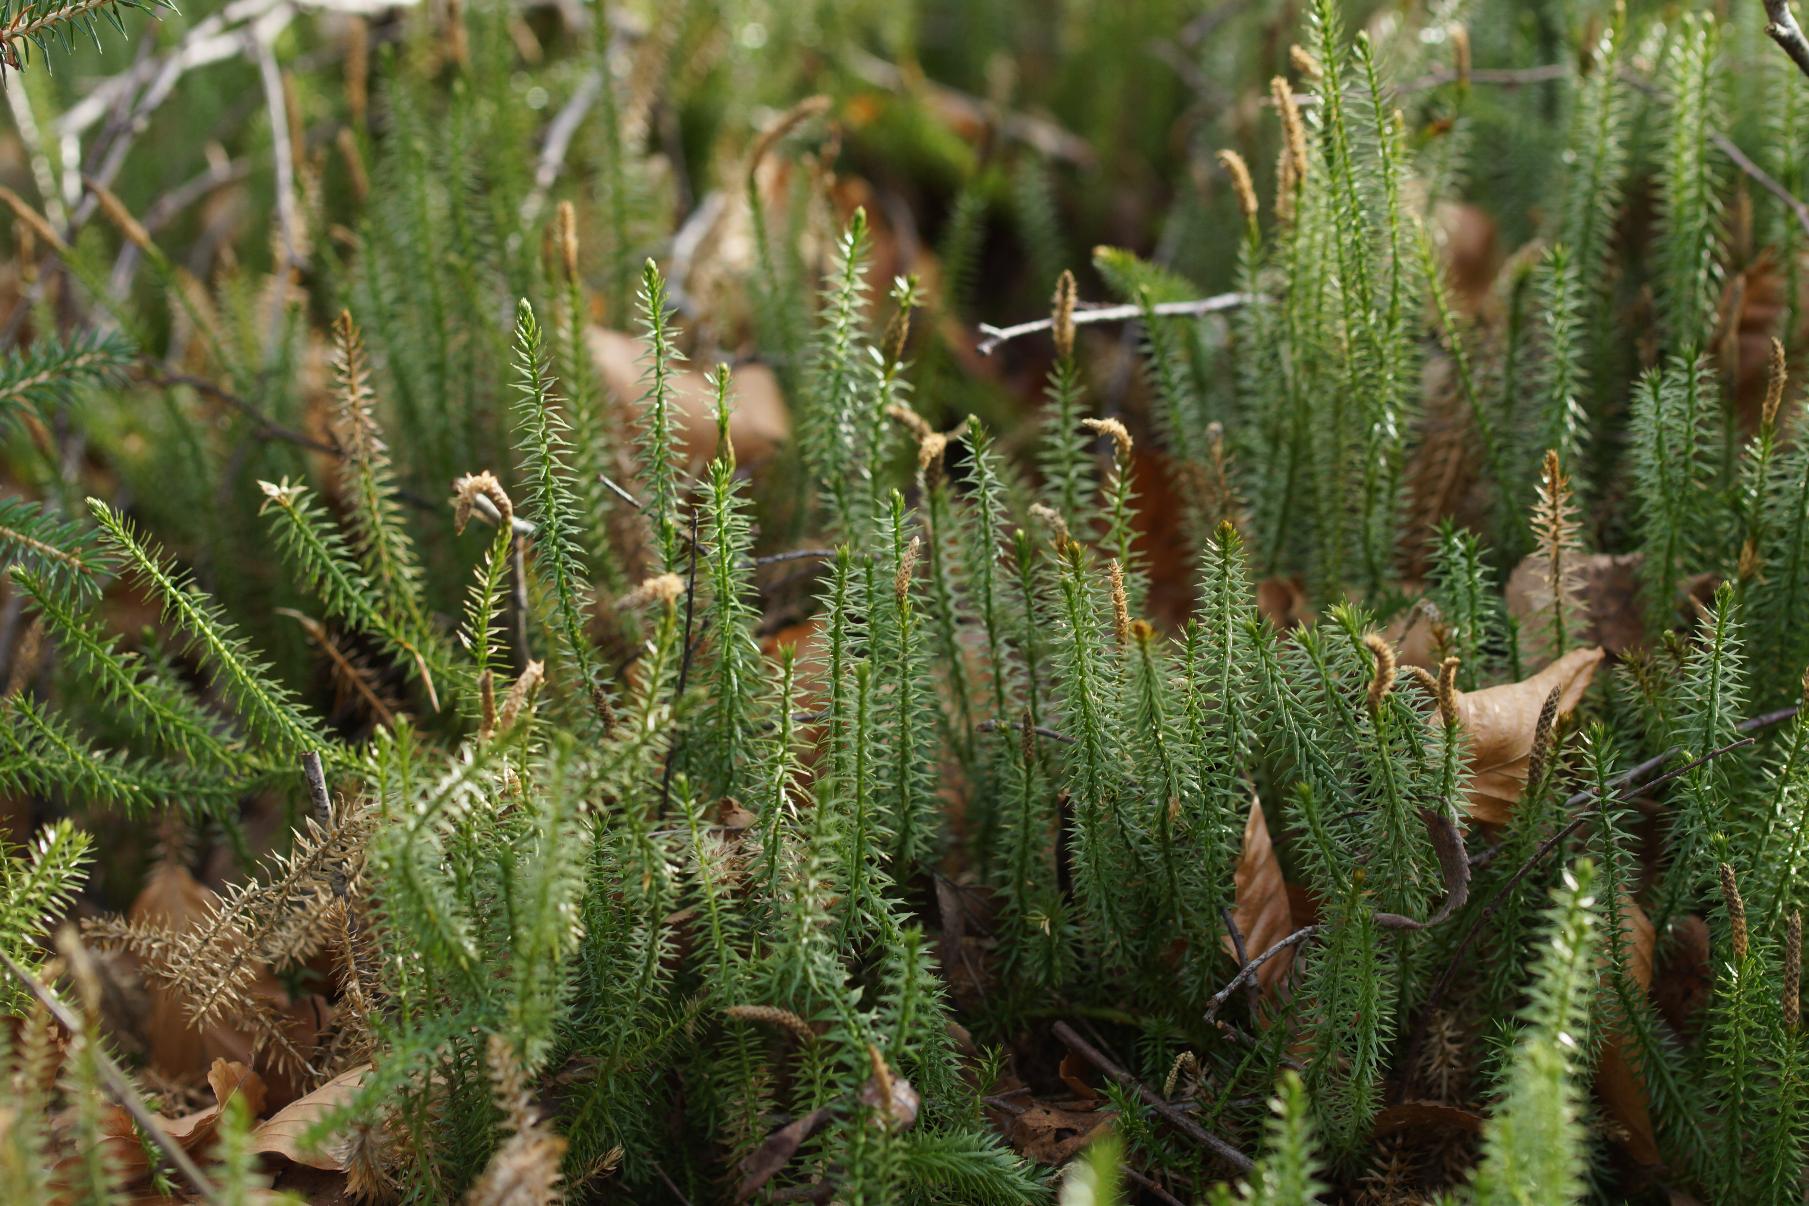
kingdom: Plantae
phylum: Tracheophyta
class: Lycopodiopsida
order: Lycopodiales
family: Lycopodiaceae
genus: Spinulum
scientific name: Spinulum annotinum
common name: Femradet ulvefod
